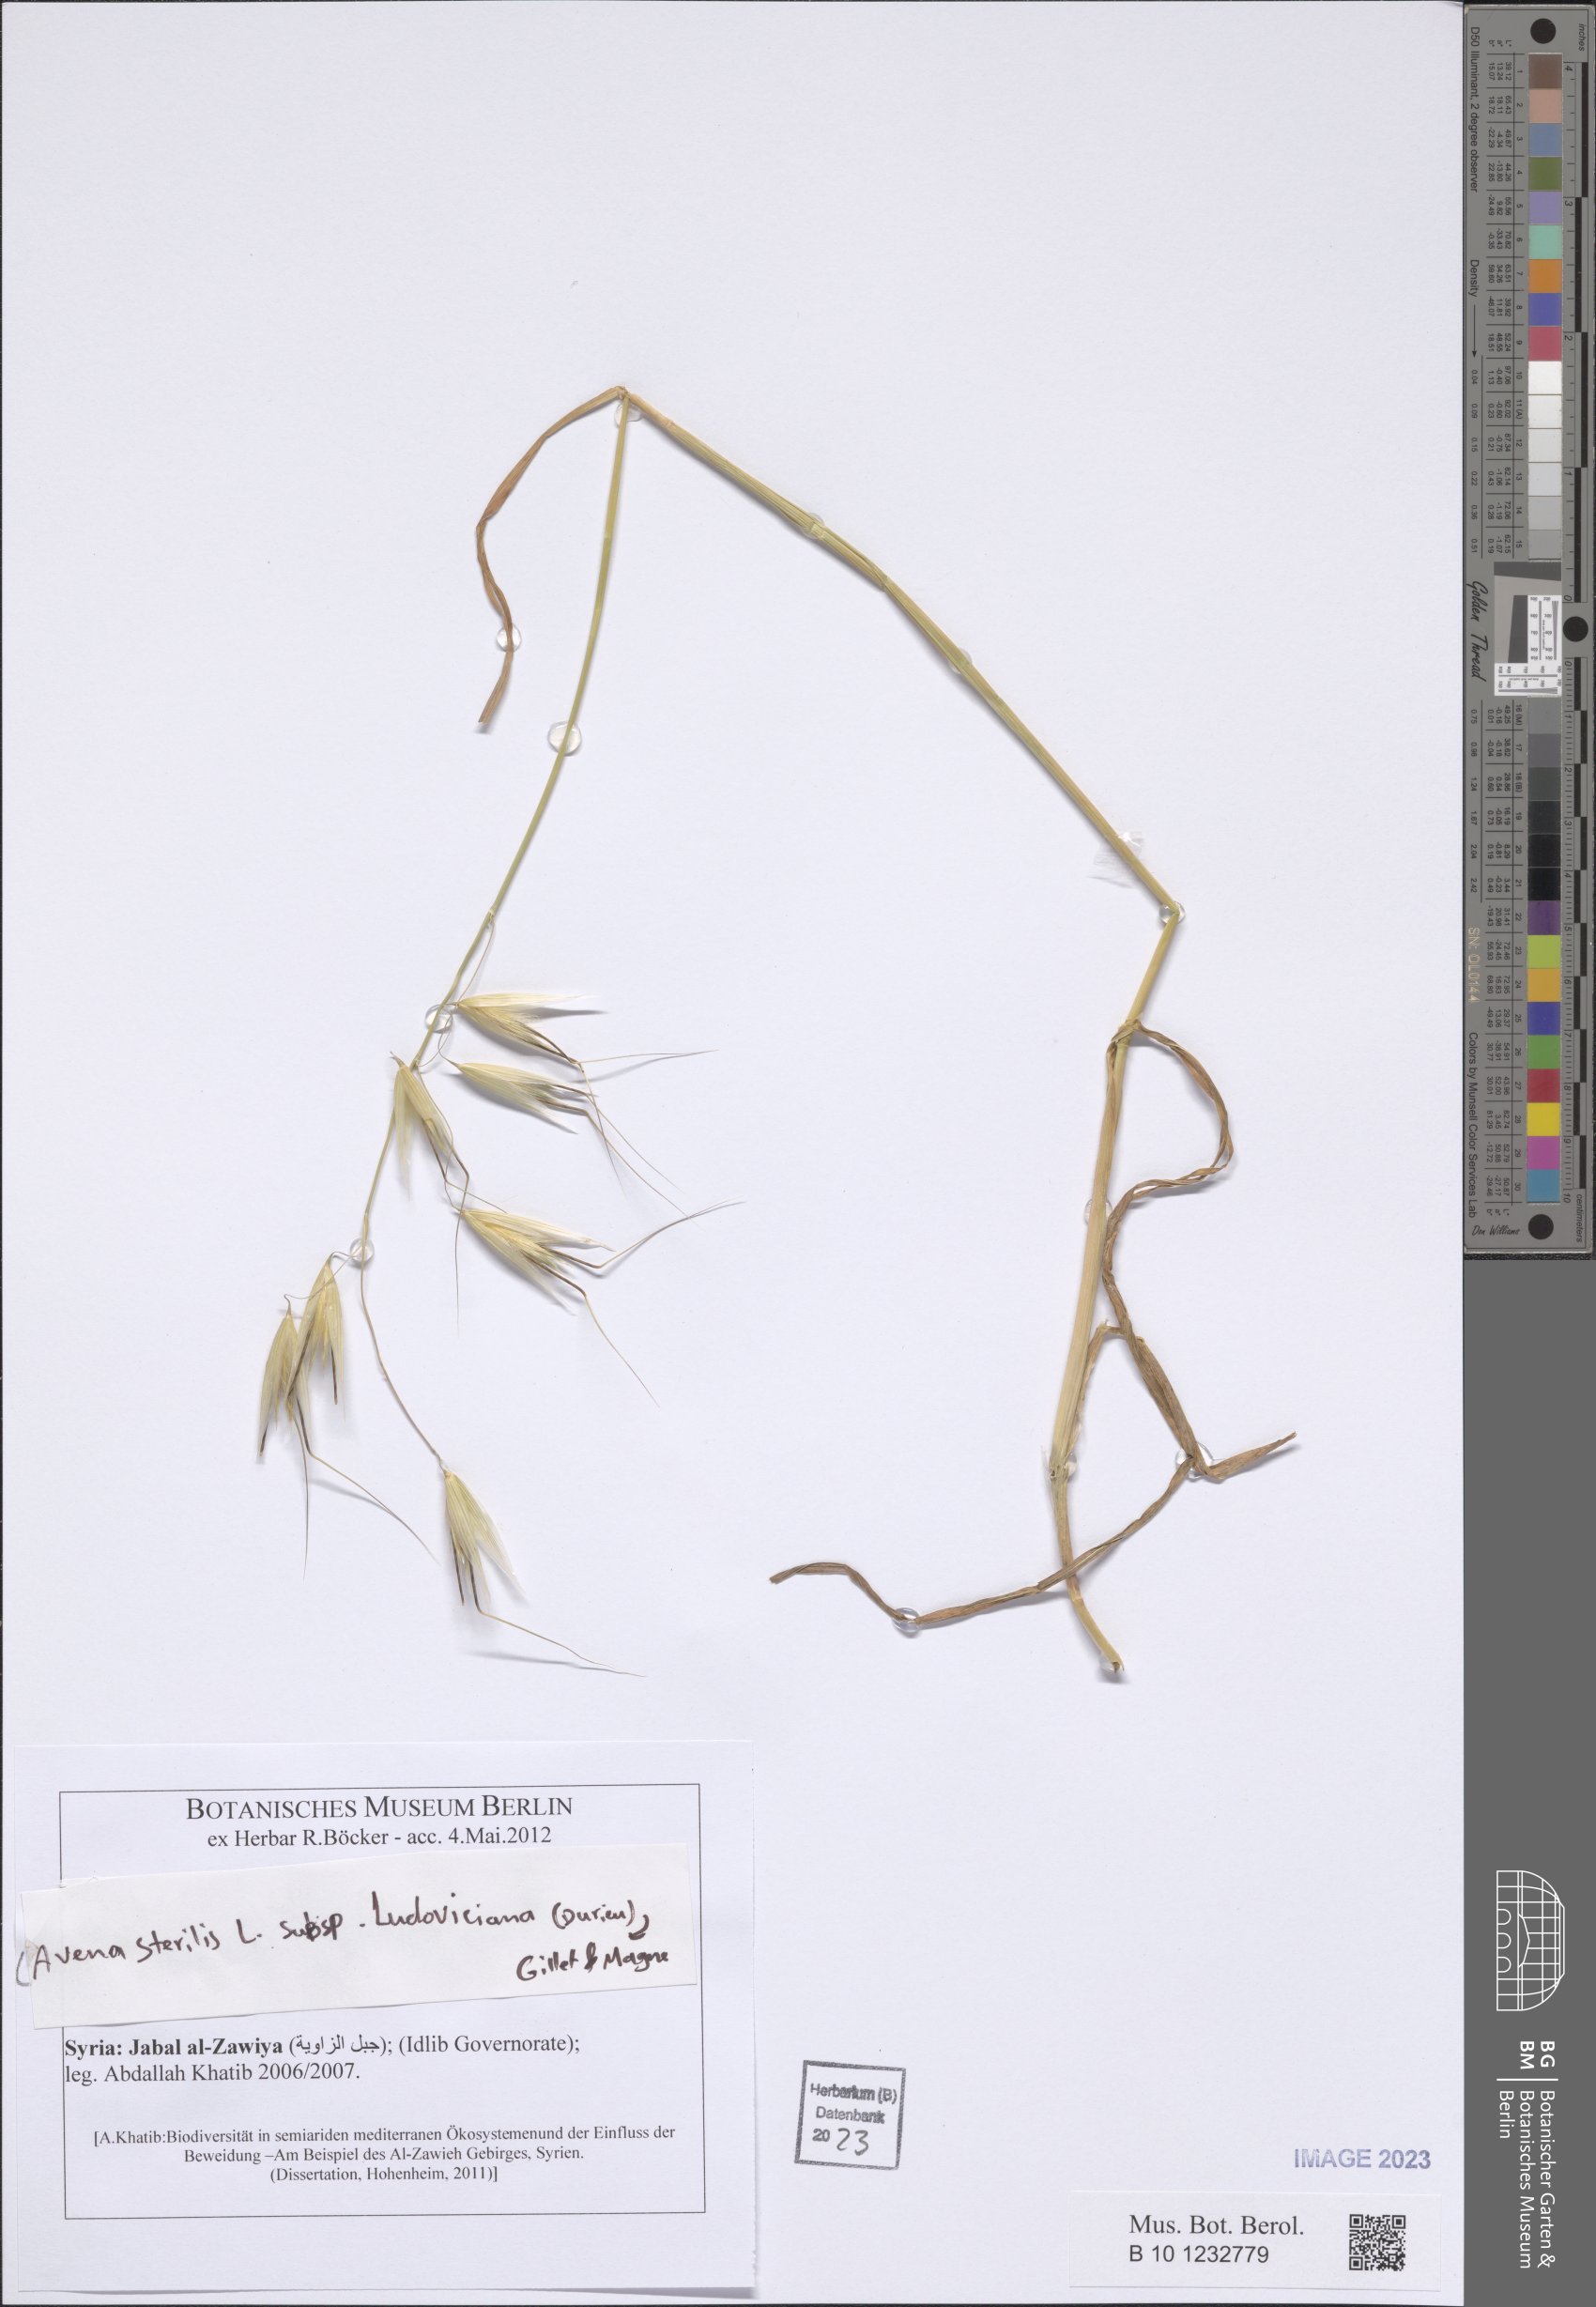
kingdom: Plantae
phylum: Tracheophyta
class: Liliopsida
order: Poales
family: Poaceae
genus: Avena
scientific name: Avena sterilis
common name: Animated oat
